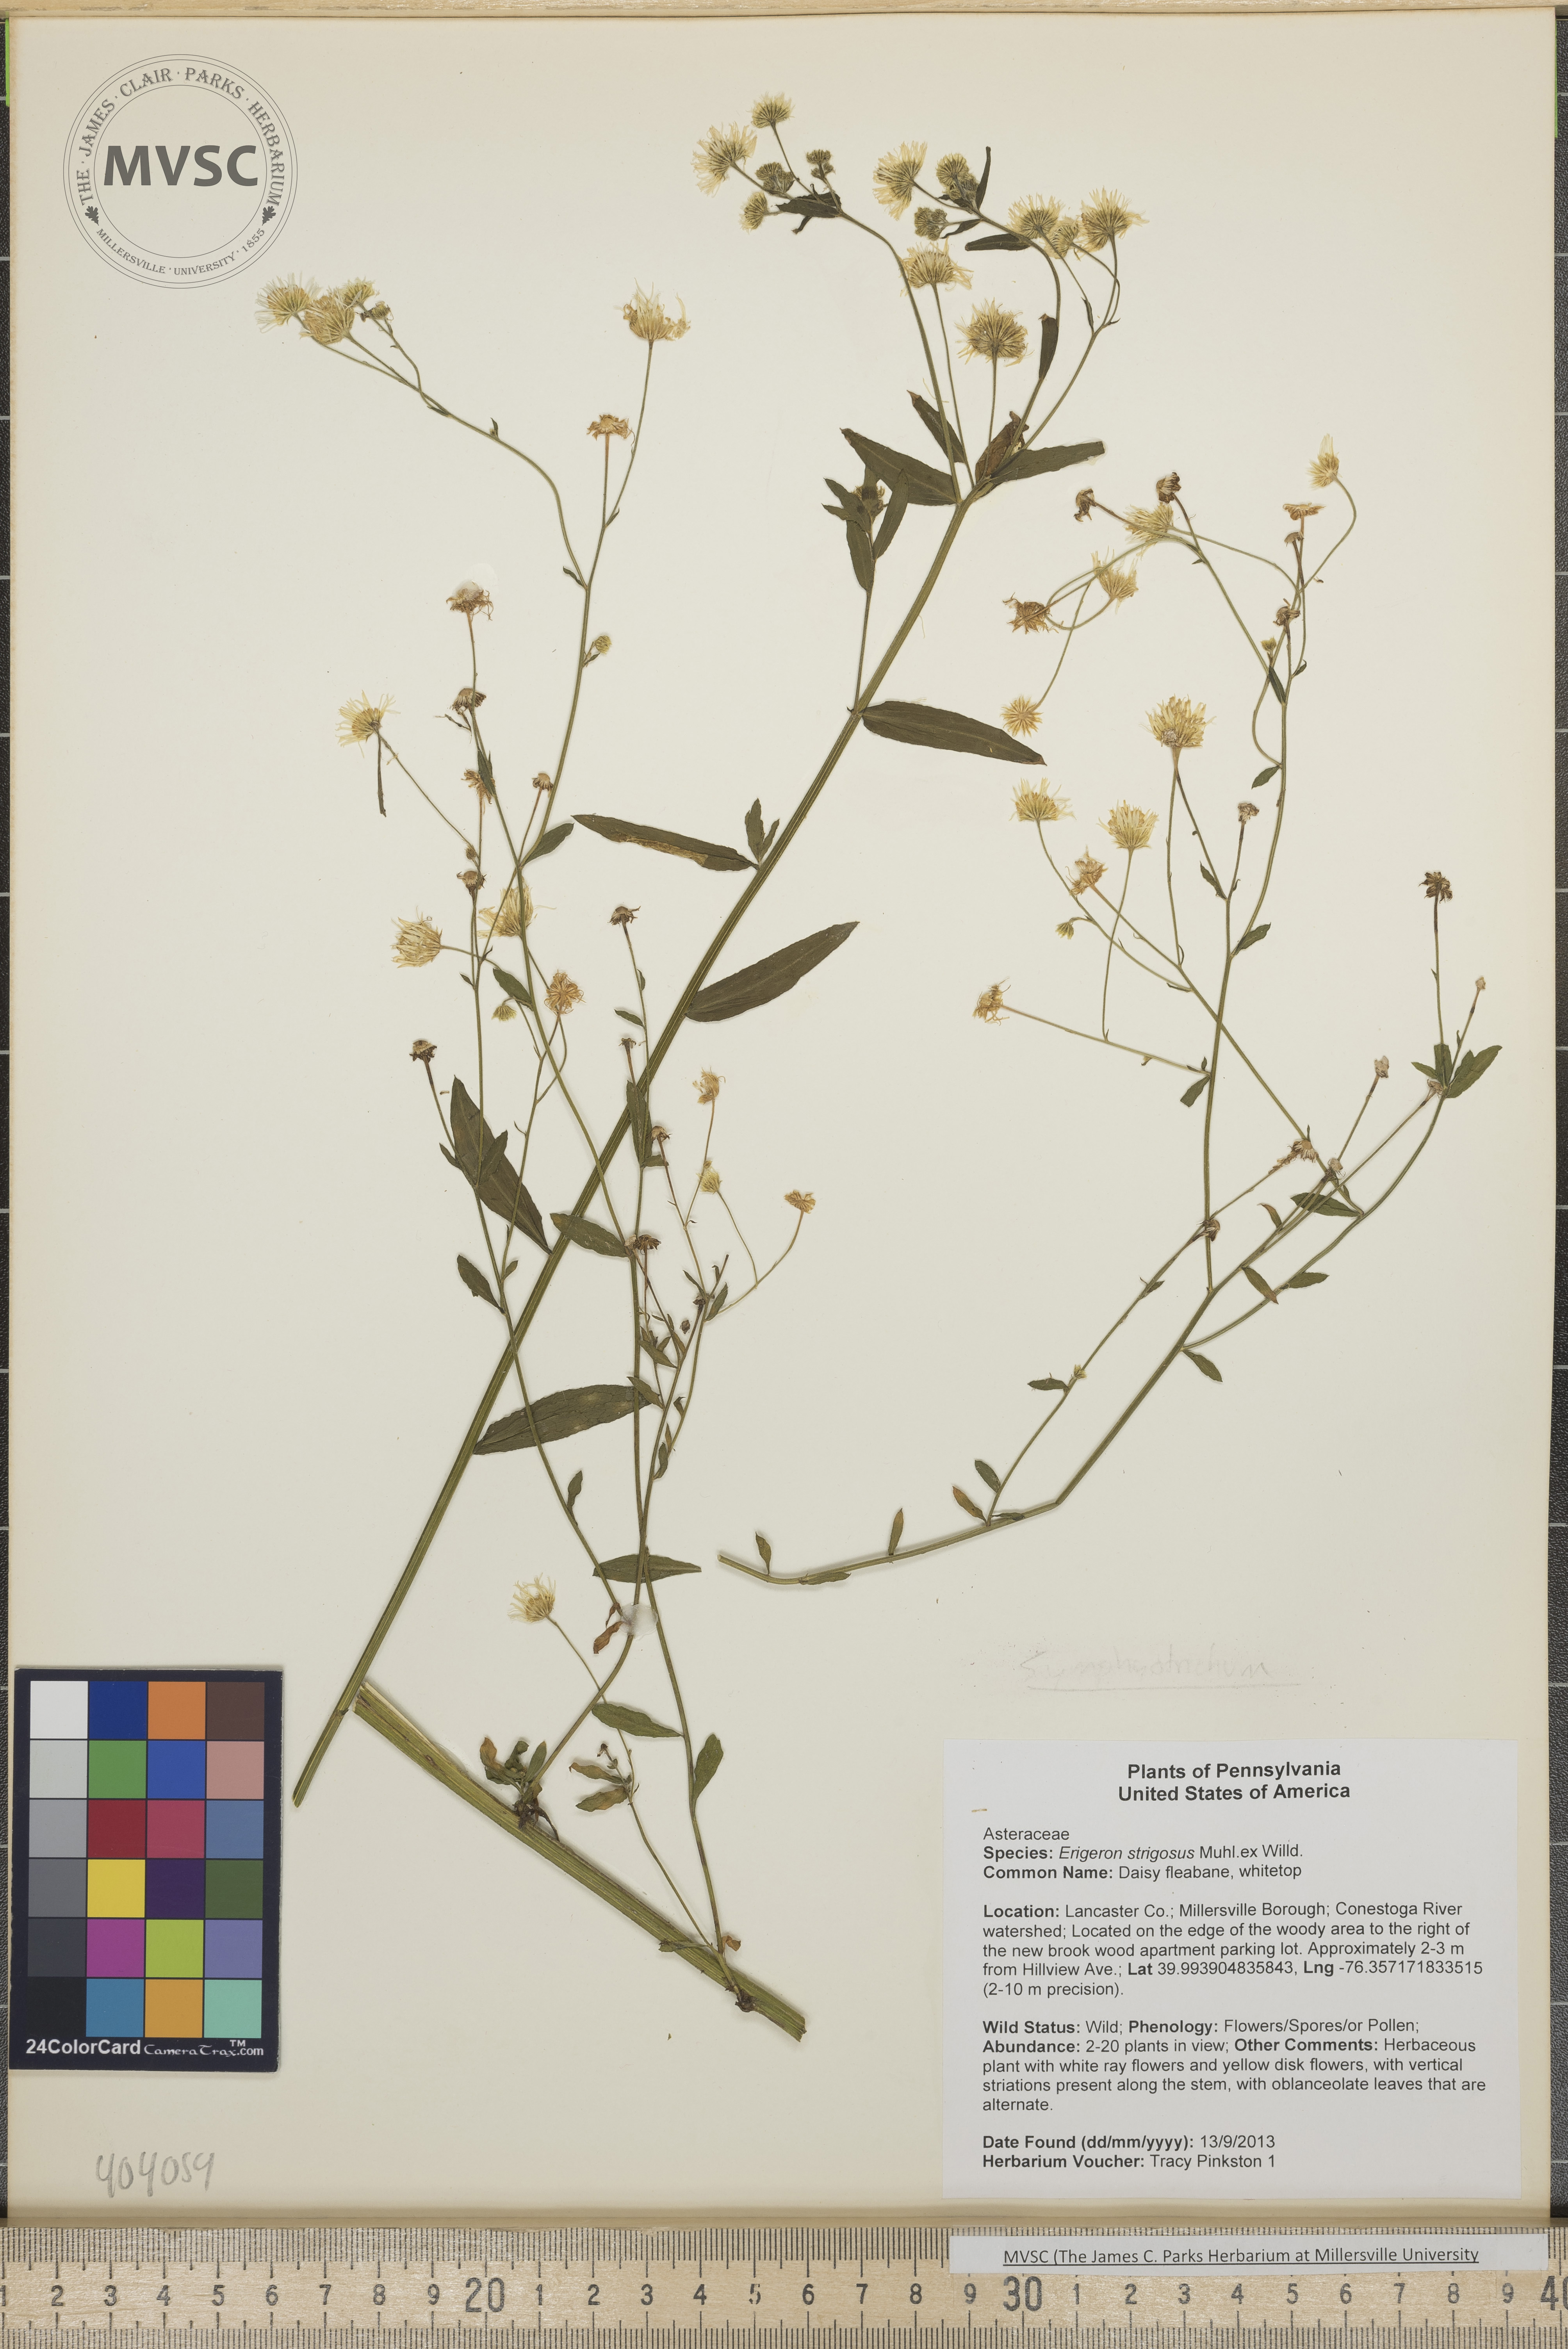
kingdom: Plantae
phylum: Tracheophyta
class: Magnoliopsida
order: Asterales
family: Asteraceae
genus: Erigeron
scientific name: Erigeron strigosus
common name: Daisy-fleabane
